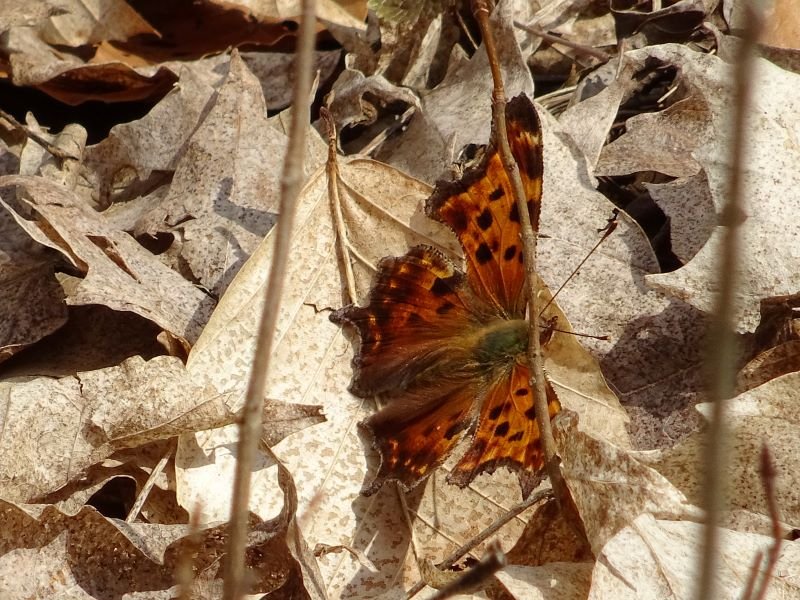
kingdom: Animalia
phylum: Arthropoda
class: Insecta
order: Lepidoptera
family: Nymphalidae
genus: Polygonia
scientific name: Polygonia comma
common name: Eastern Comma
